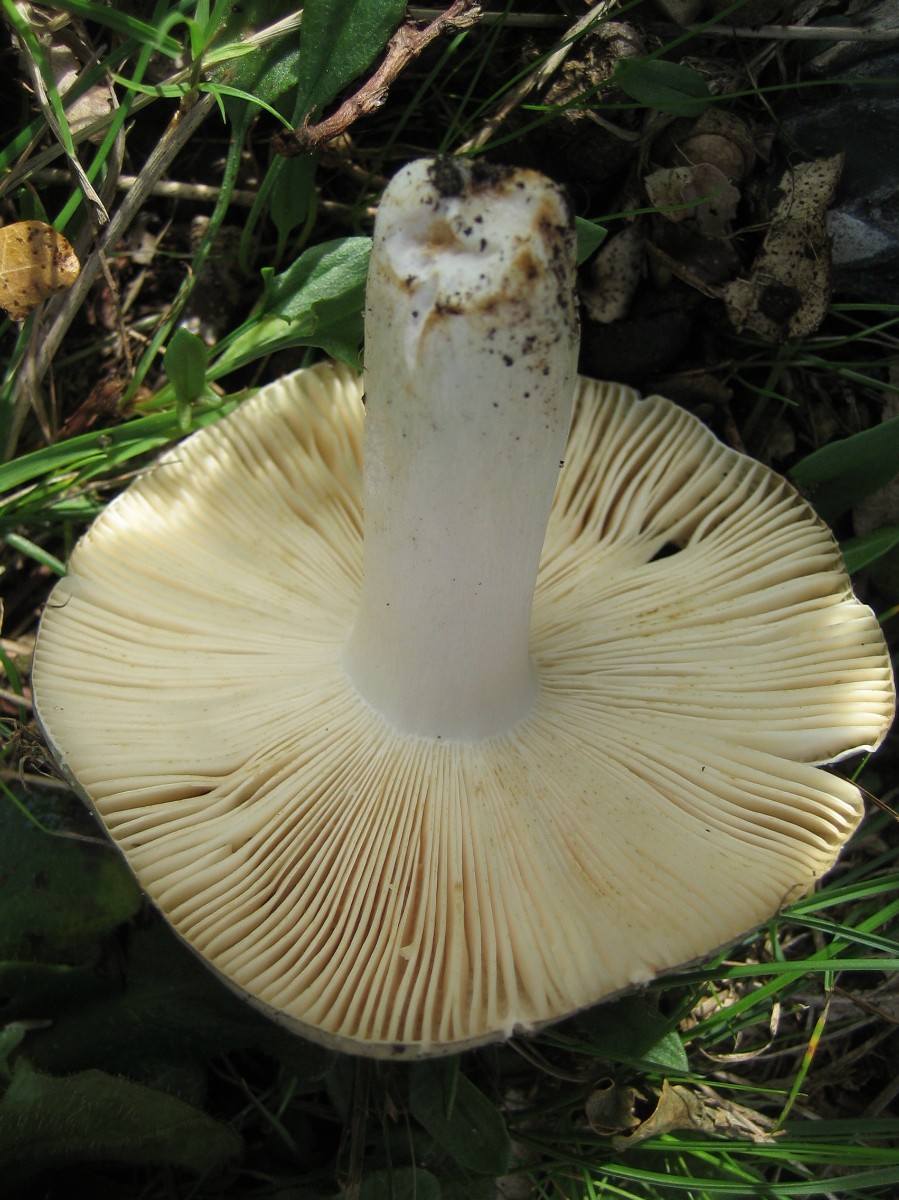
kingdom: Fungi
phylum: Basidiomycota
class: Agaricomycetes
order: Russulales
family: Russulaceae
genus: Russula
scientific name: Russula ionochlora
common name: violetgrøn skørhat
